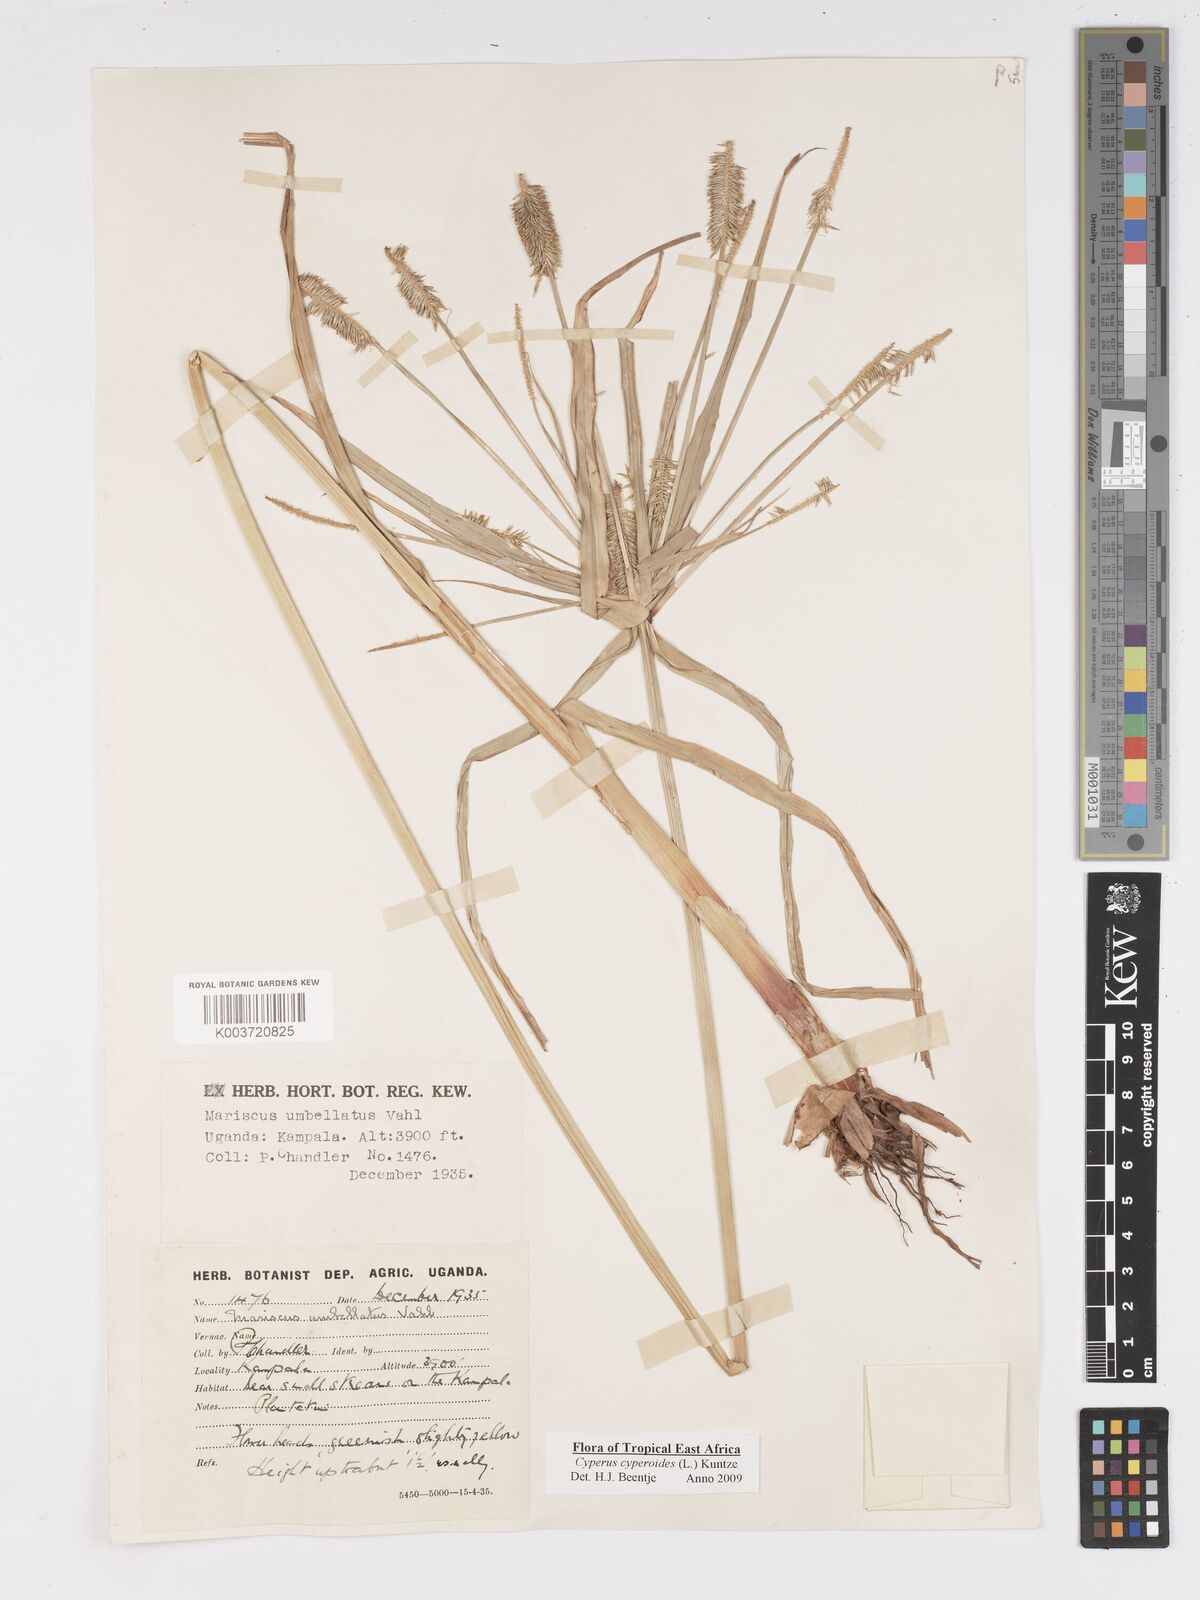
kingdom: Plantae
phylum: Tracheophyta
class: Liliopsida
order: Poales
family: Cyperaceae
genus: Cyperus
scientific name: Cyperus cyperoides
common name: Pacific island flat sedge
